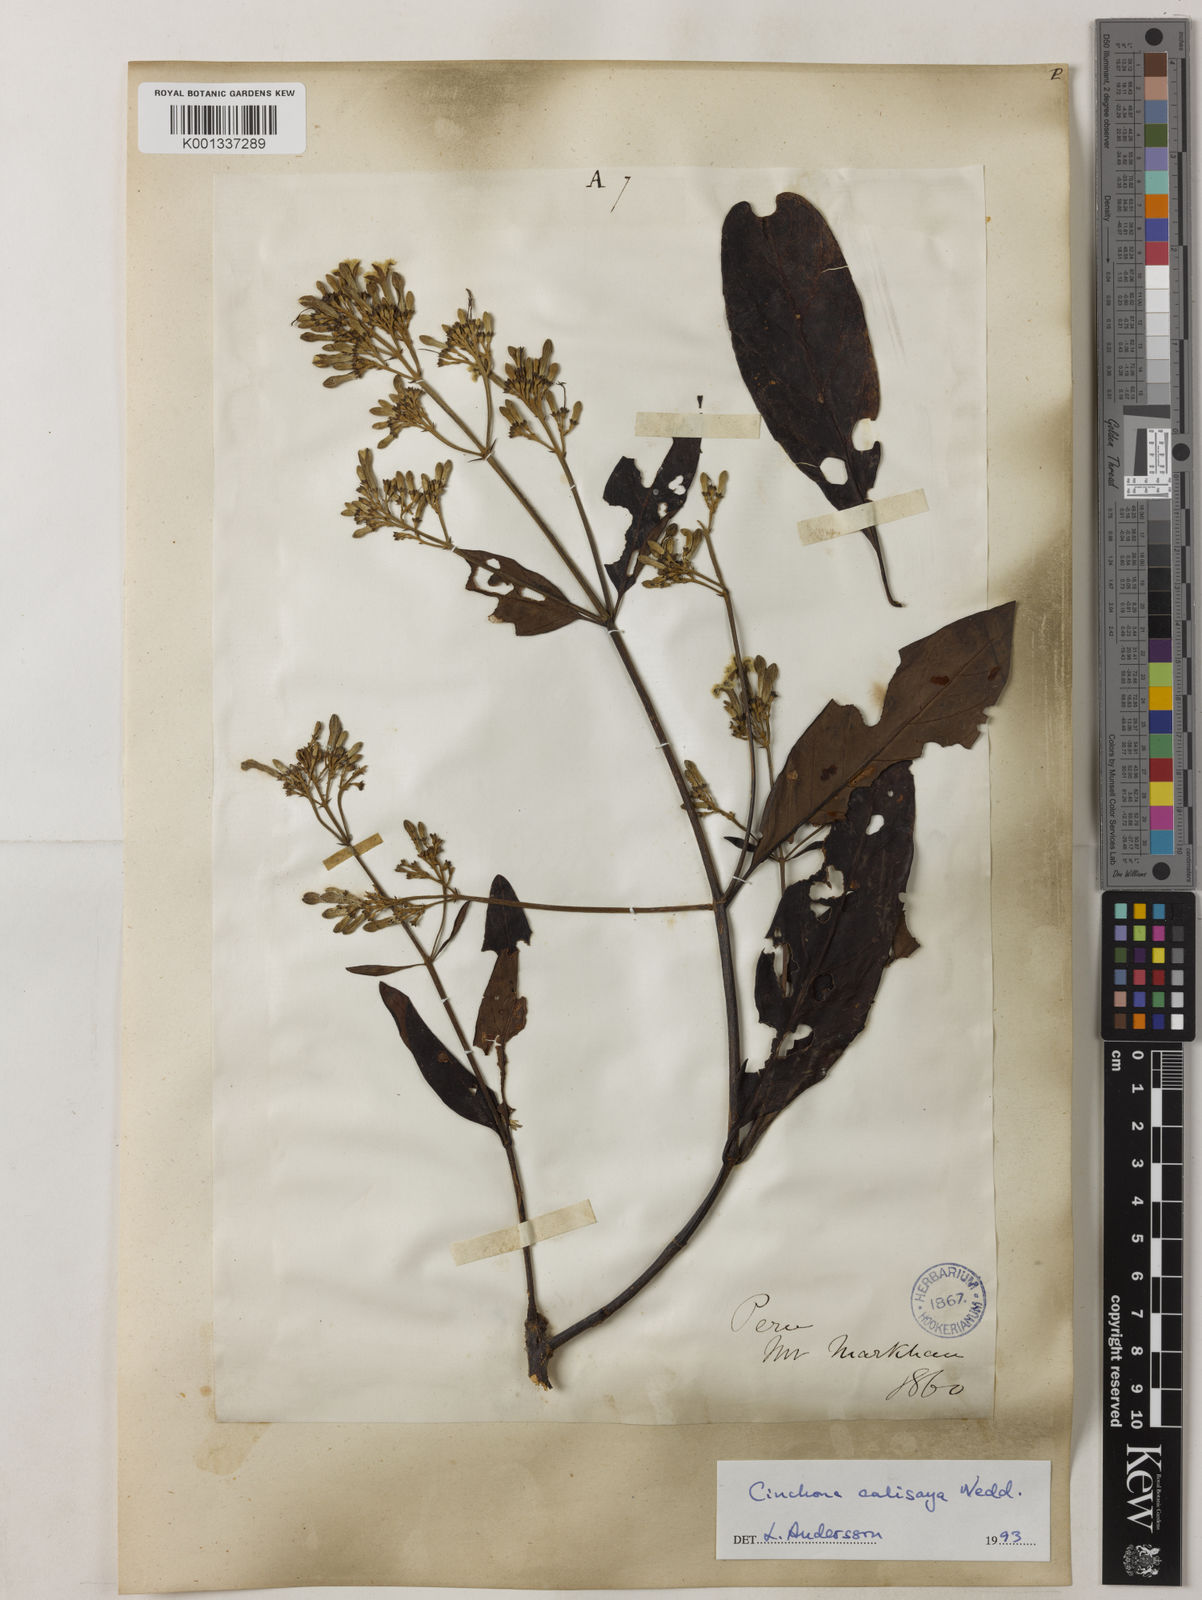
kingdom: Plantae
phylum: Tracheophyta
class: Magnoliopsida
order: Gentianales
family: Rubiaceae
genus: Cinchona
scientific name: Cinchona calisaya
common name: Ledgerbark
